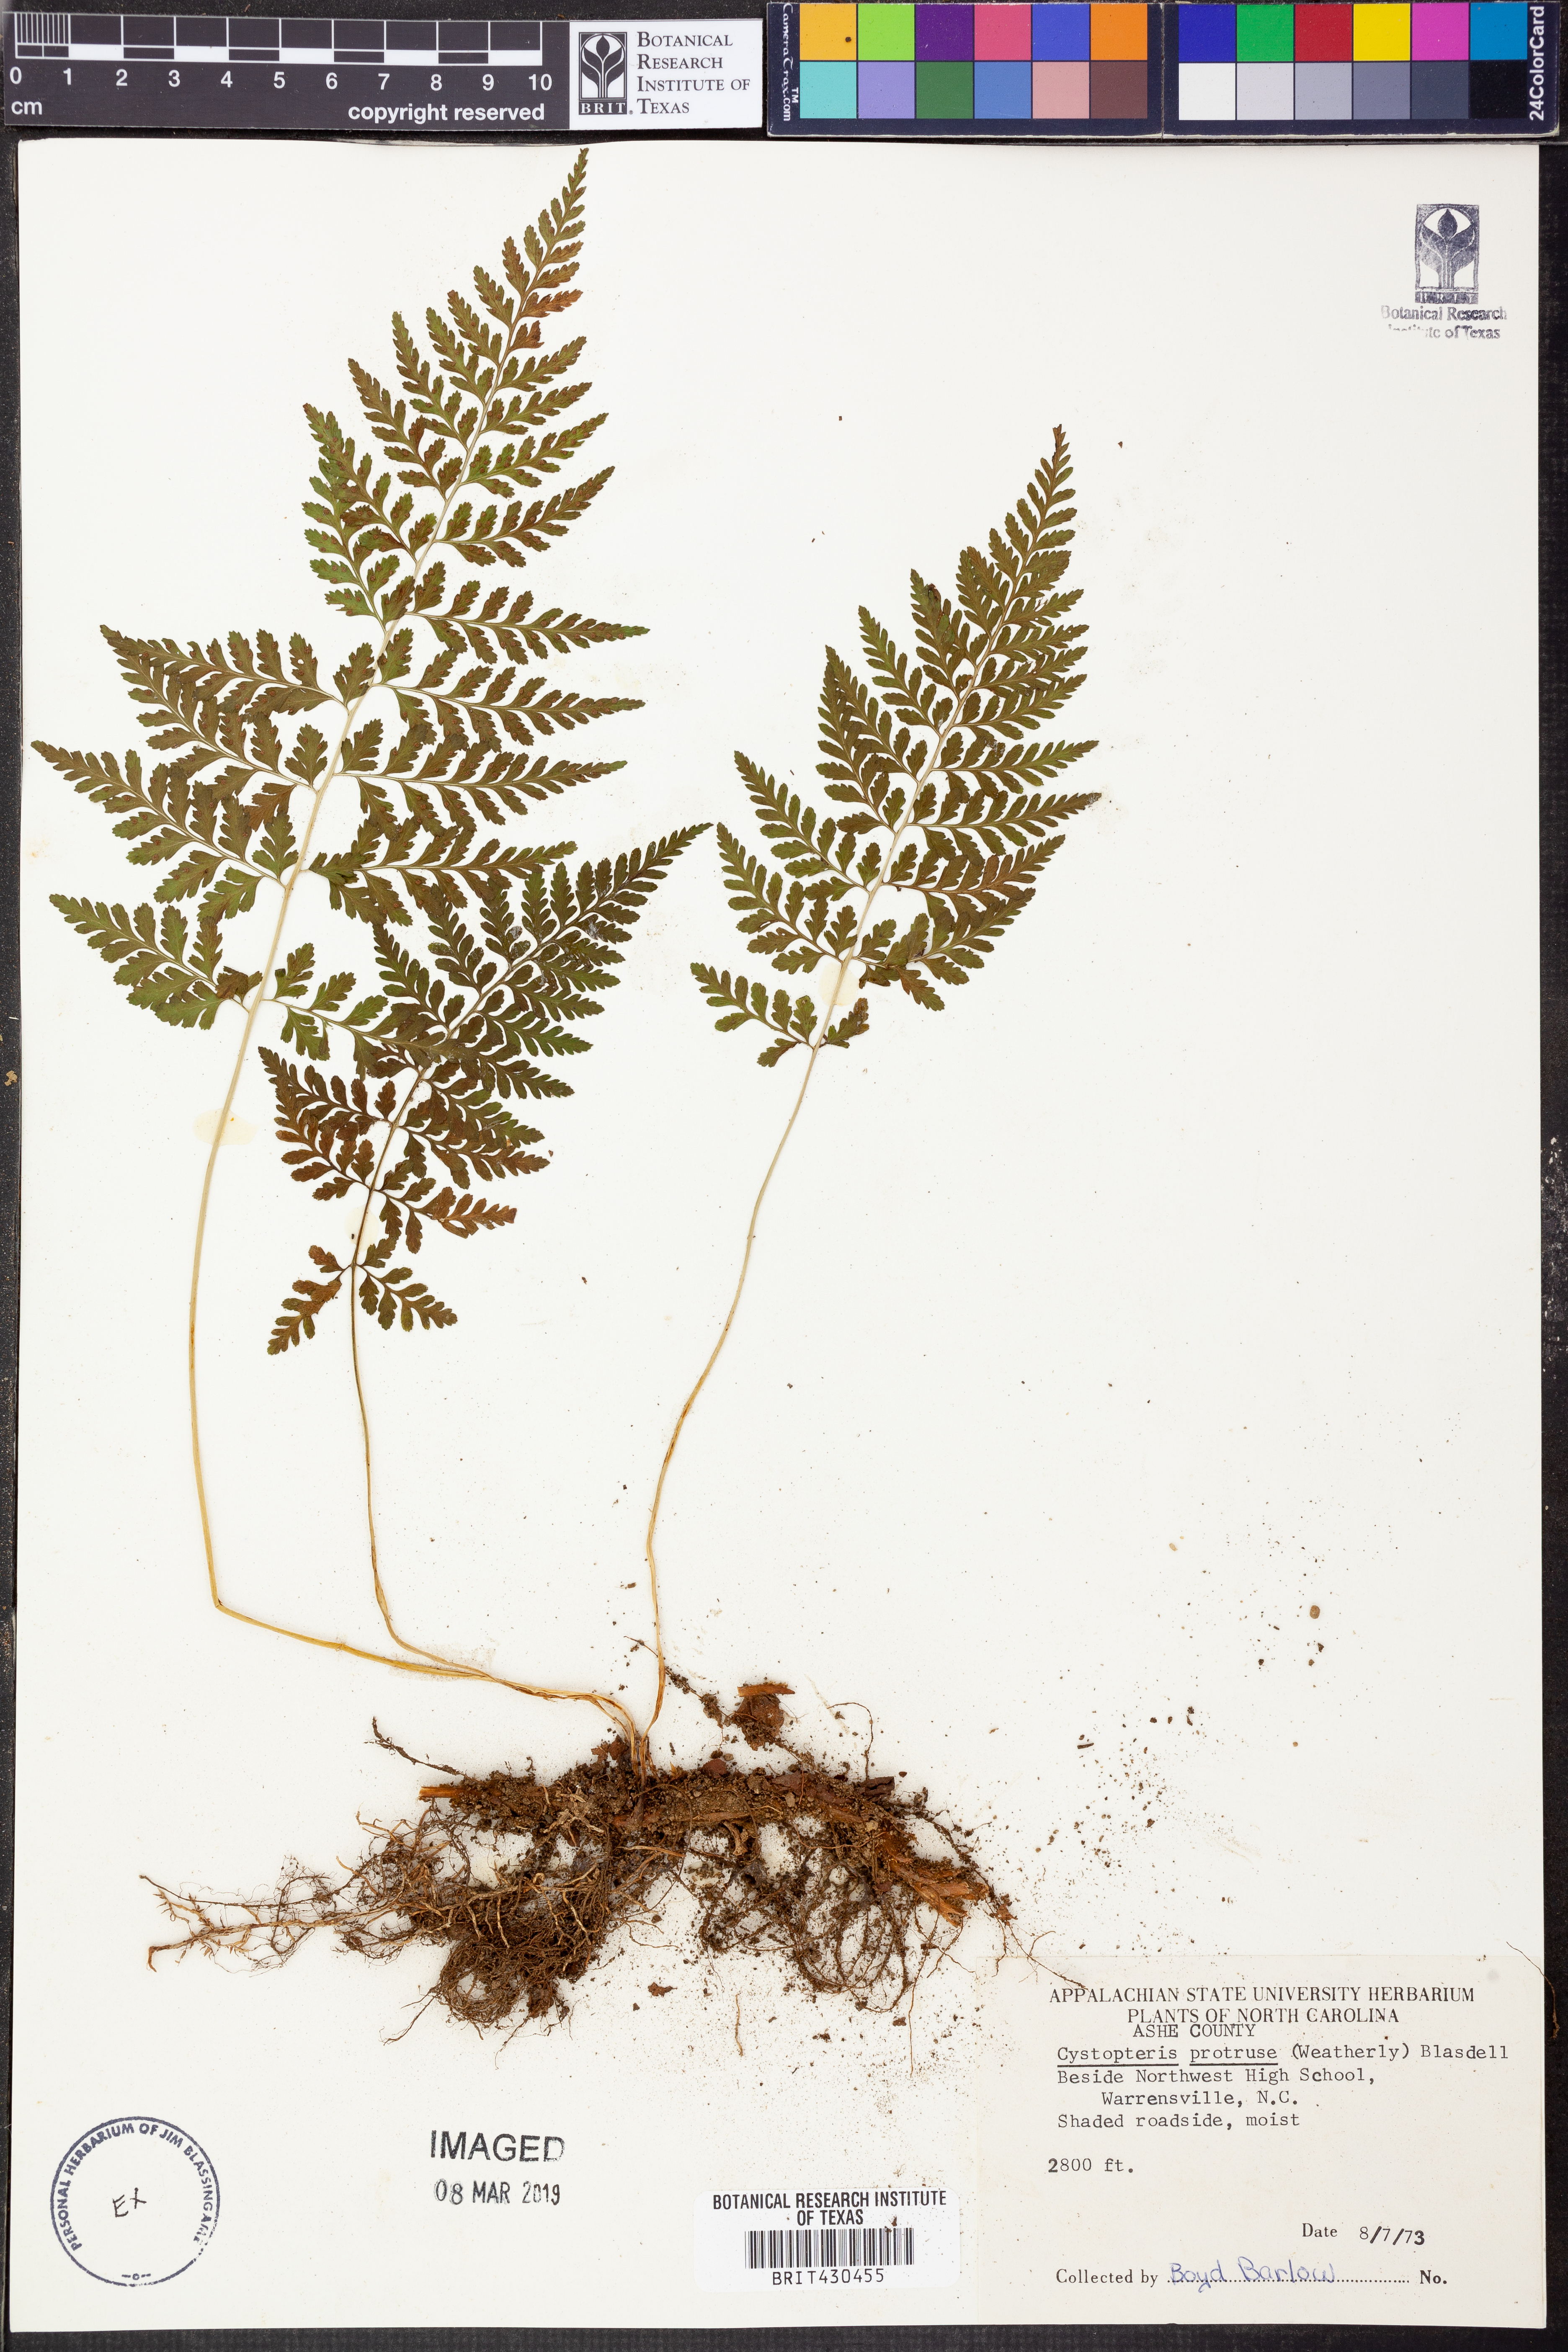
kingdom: Plantae
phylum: Tracheophyta
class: Polypodiopsida
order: Polypodiales
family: Cystopteridaceae
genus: Cystopteris
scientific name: Cystopteris protrusa
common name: Lowland brittle fern
